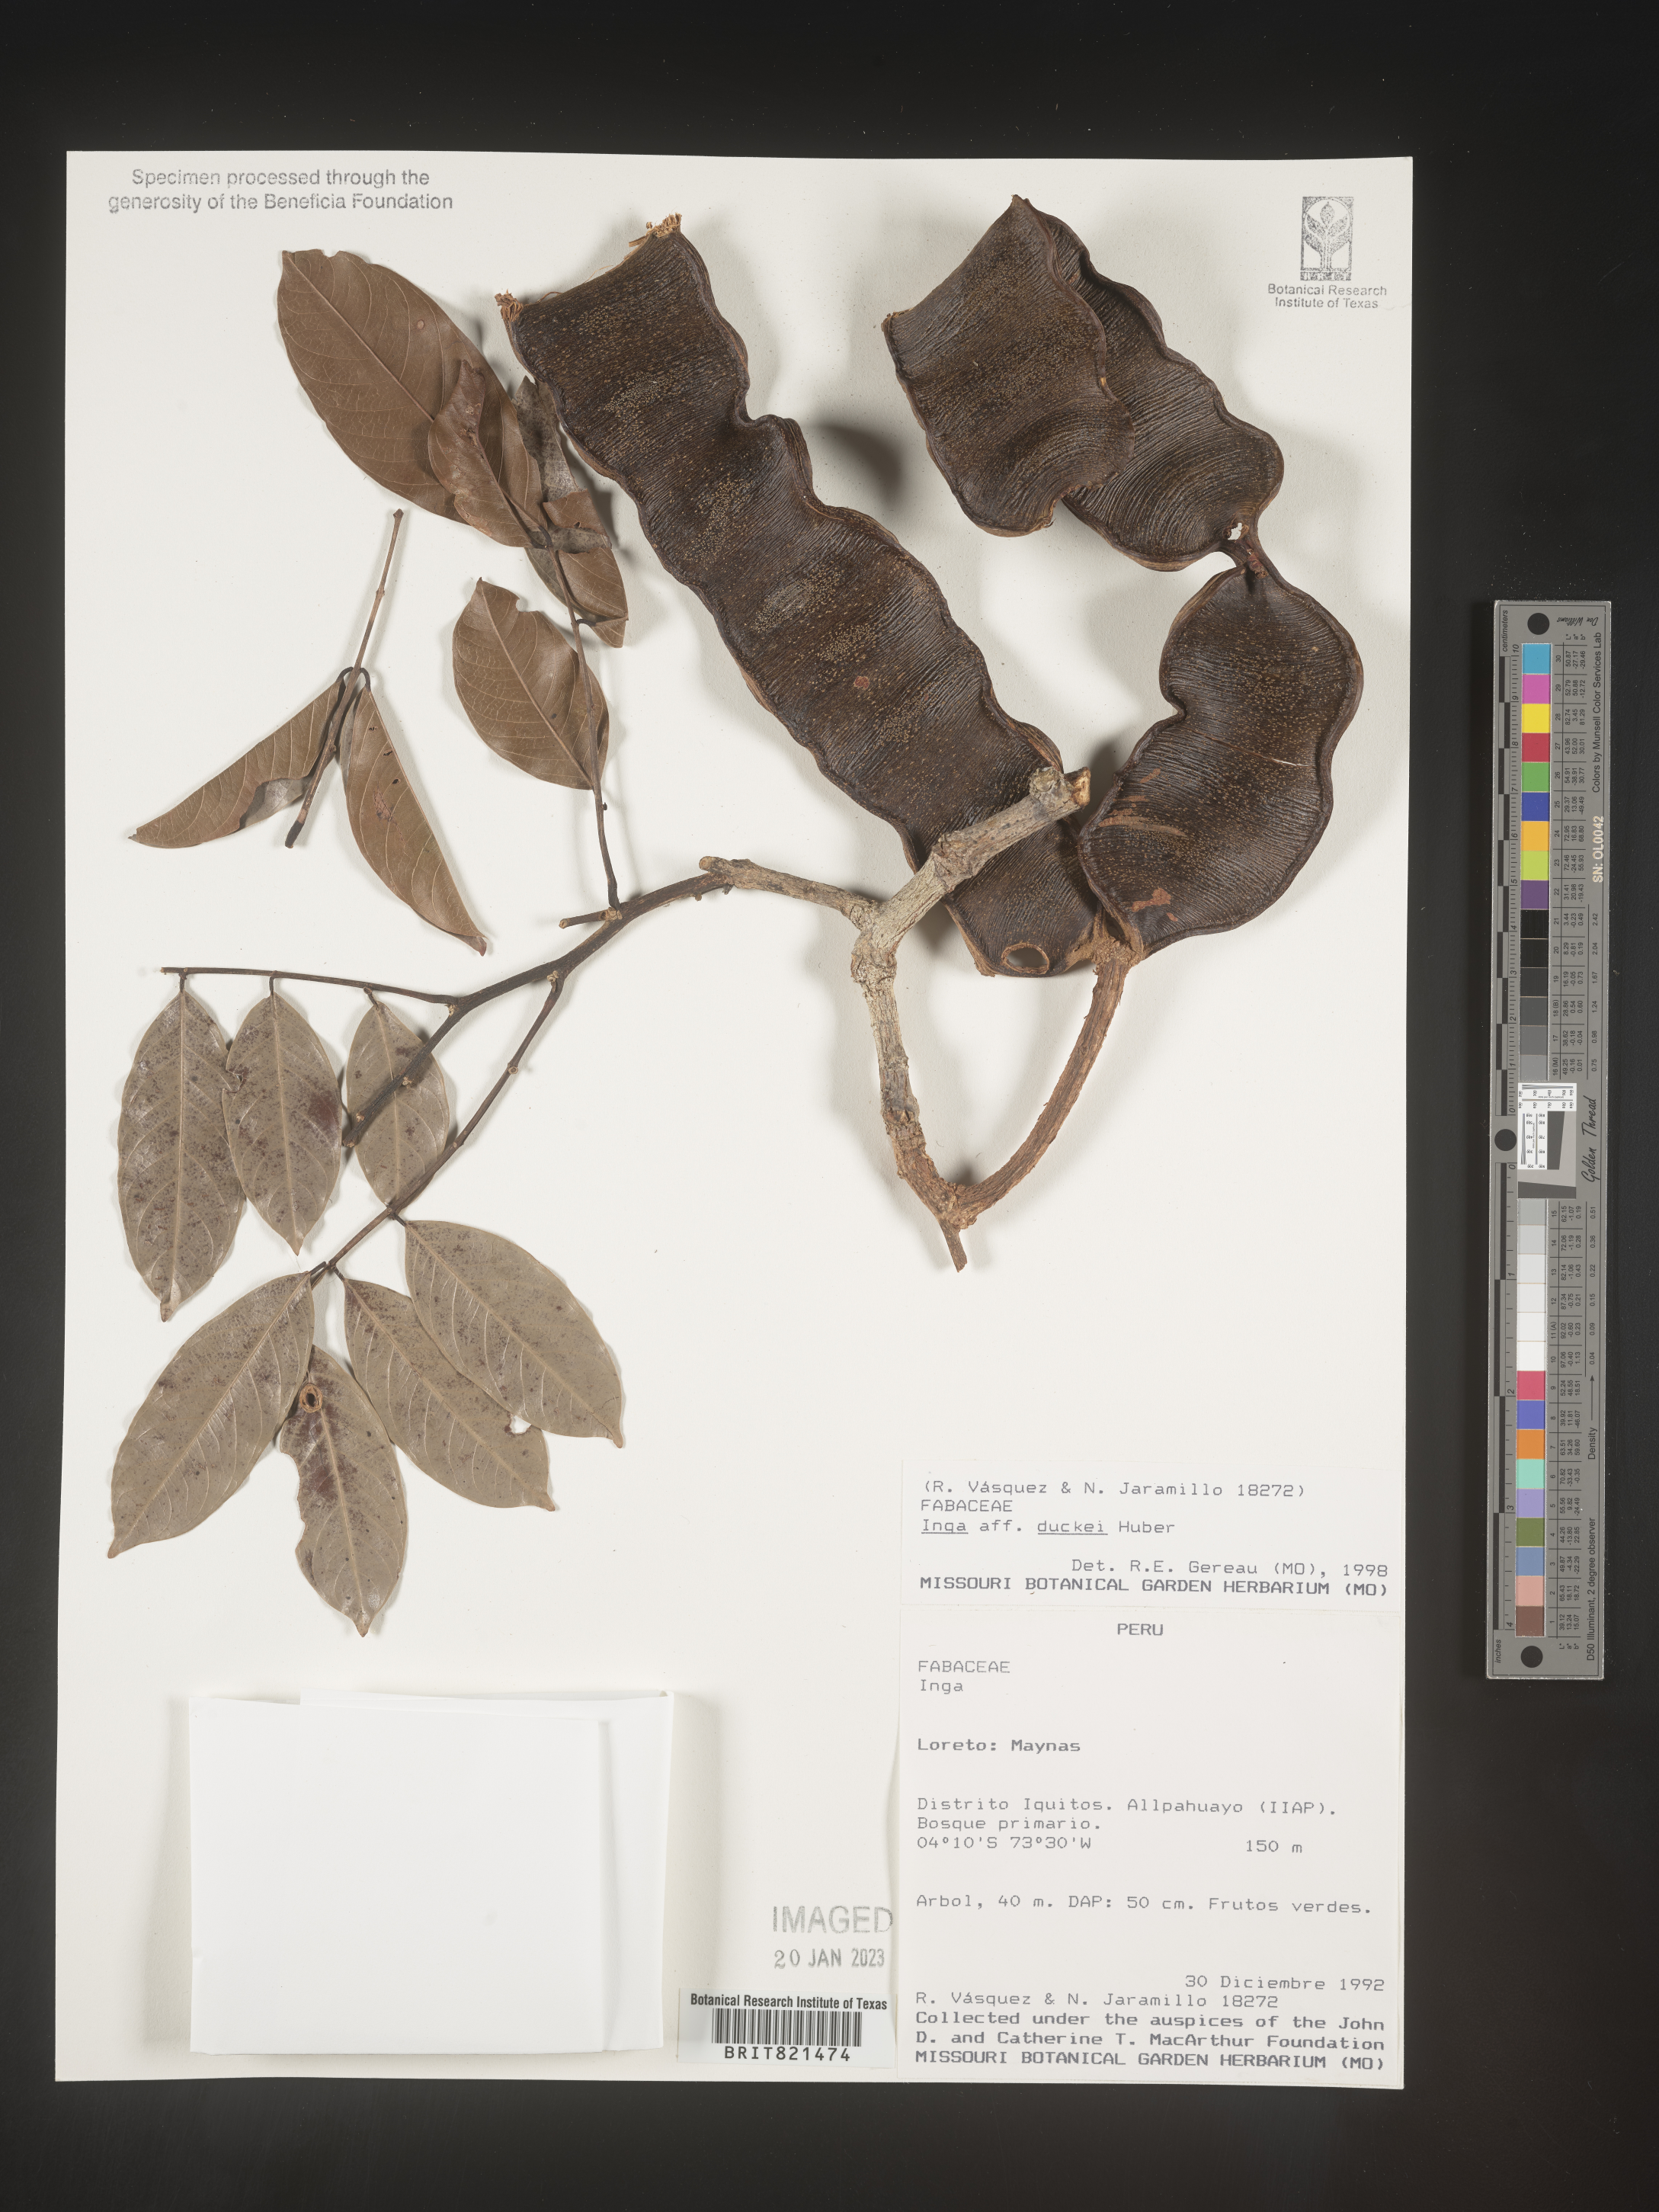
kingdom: Plantae
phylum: Tracheophyta
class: Magnoliopsida
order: Fabales
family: Fabaceae
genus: Inga
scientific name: Inga
